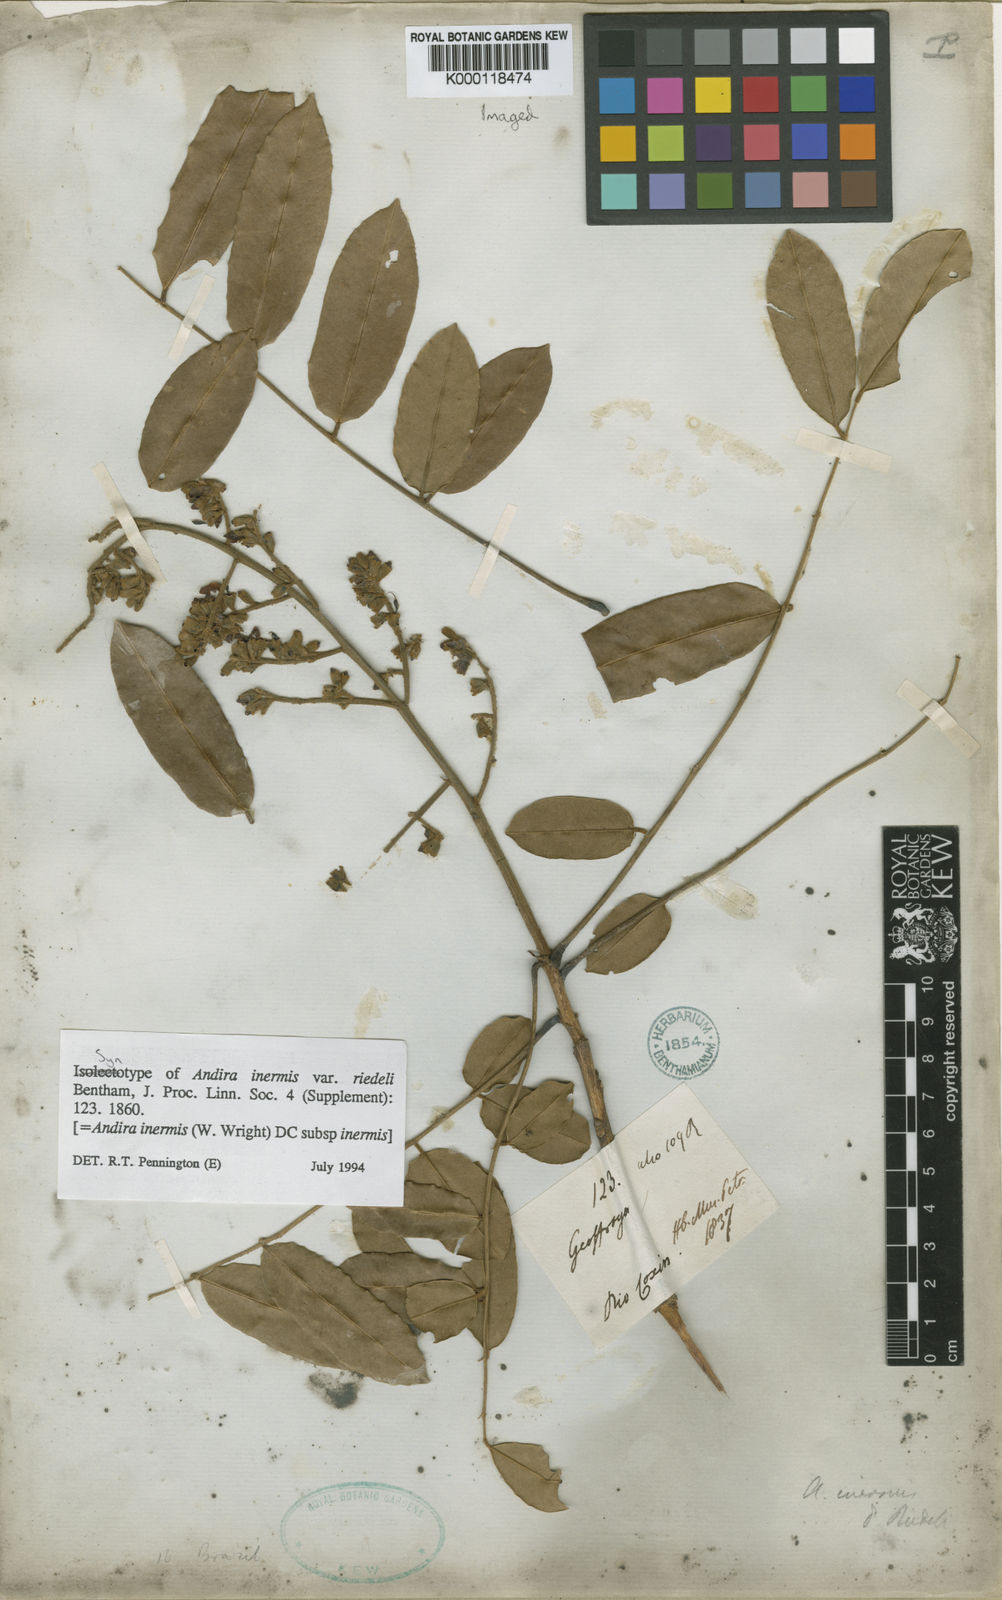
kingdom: Plantae
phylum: Tracheophyta
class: Magnoliopsida
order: Fabales
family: Fabaceae
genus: Andira
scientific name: Andira inermis
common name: Angelin
